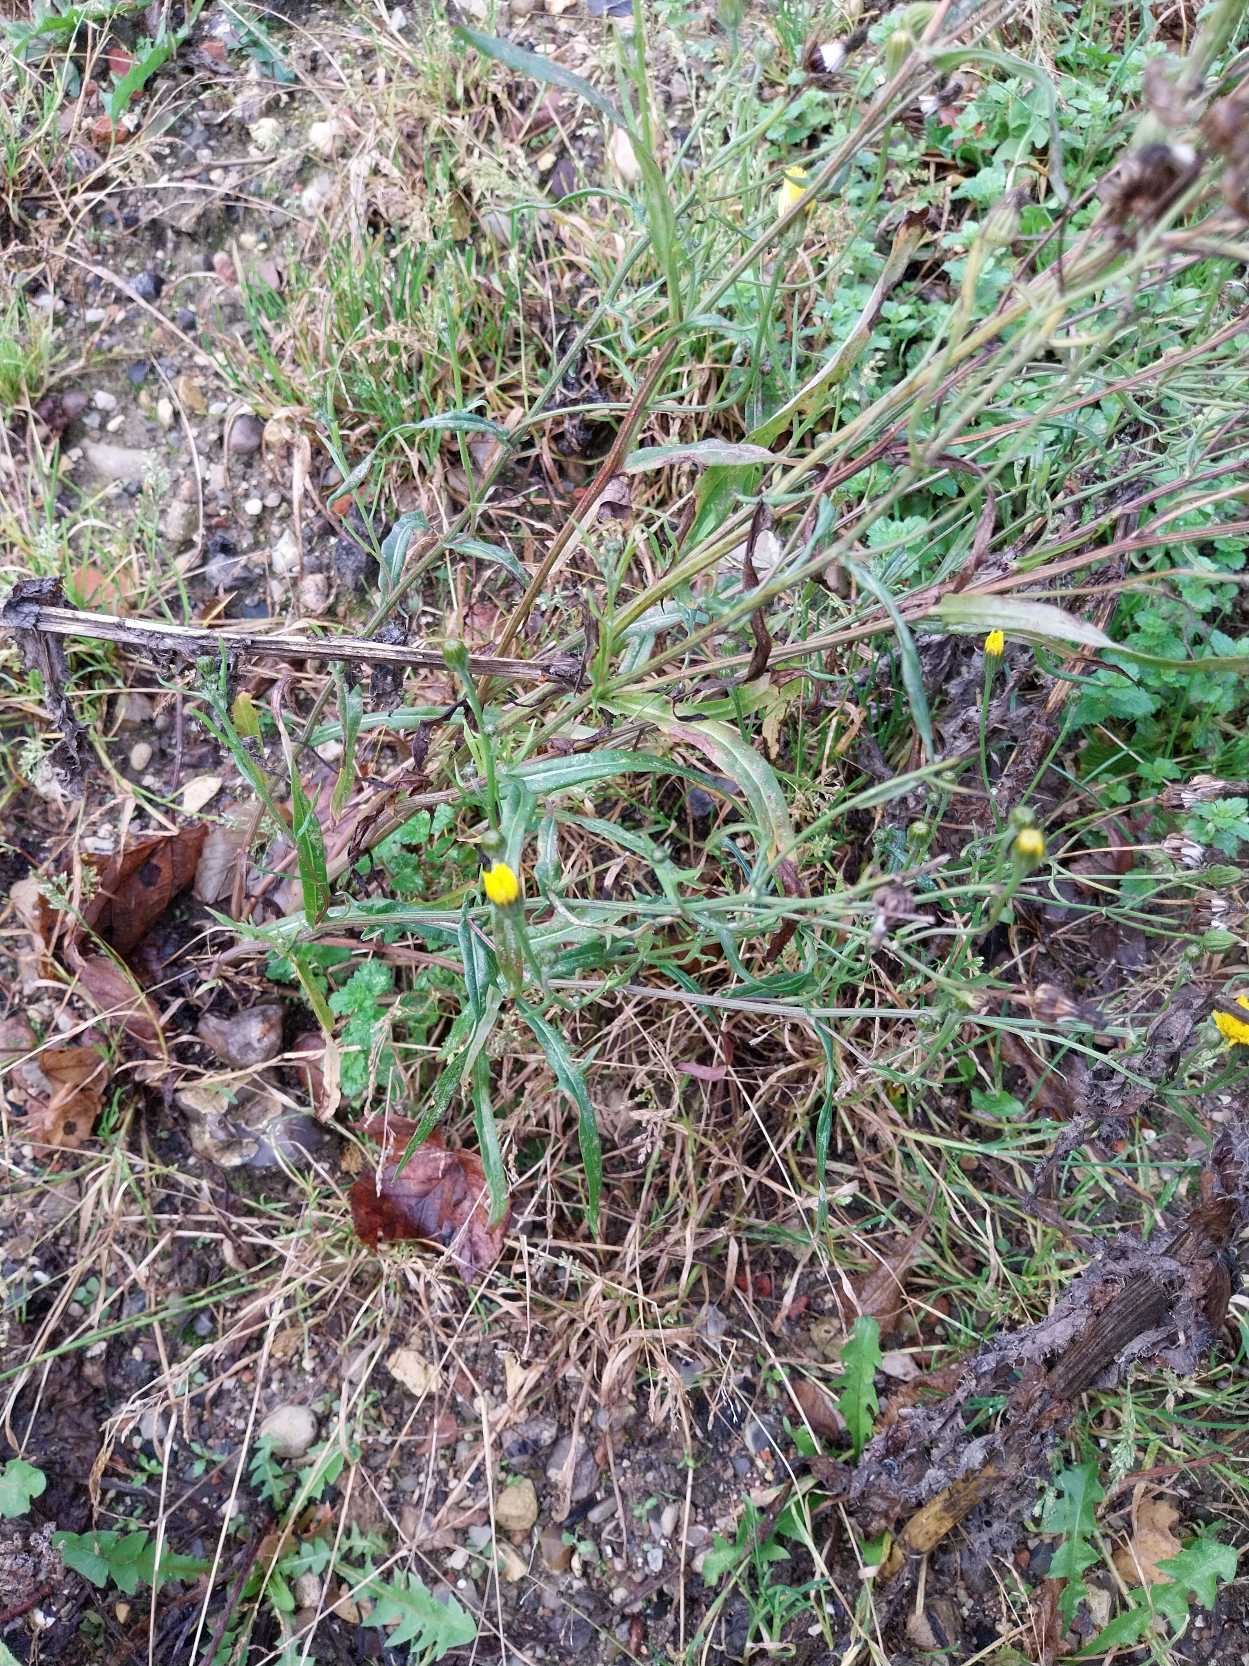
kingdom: Plantae
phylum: Tracheophyta
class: Magnoliopsida
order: Asterales
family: Asteraceae
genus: Crepis
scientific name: Crepis capillaris
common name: Grøn høgeskæg
